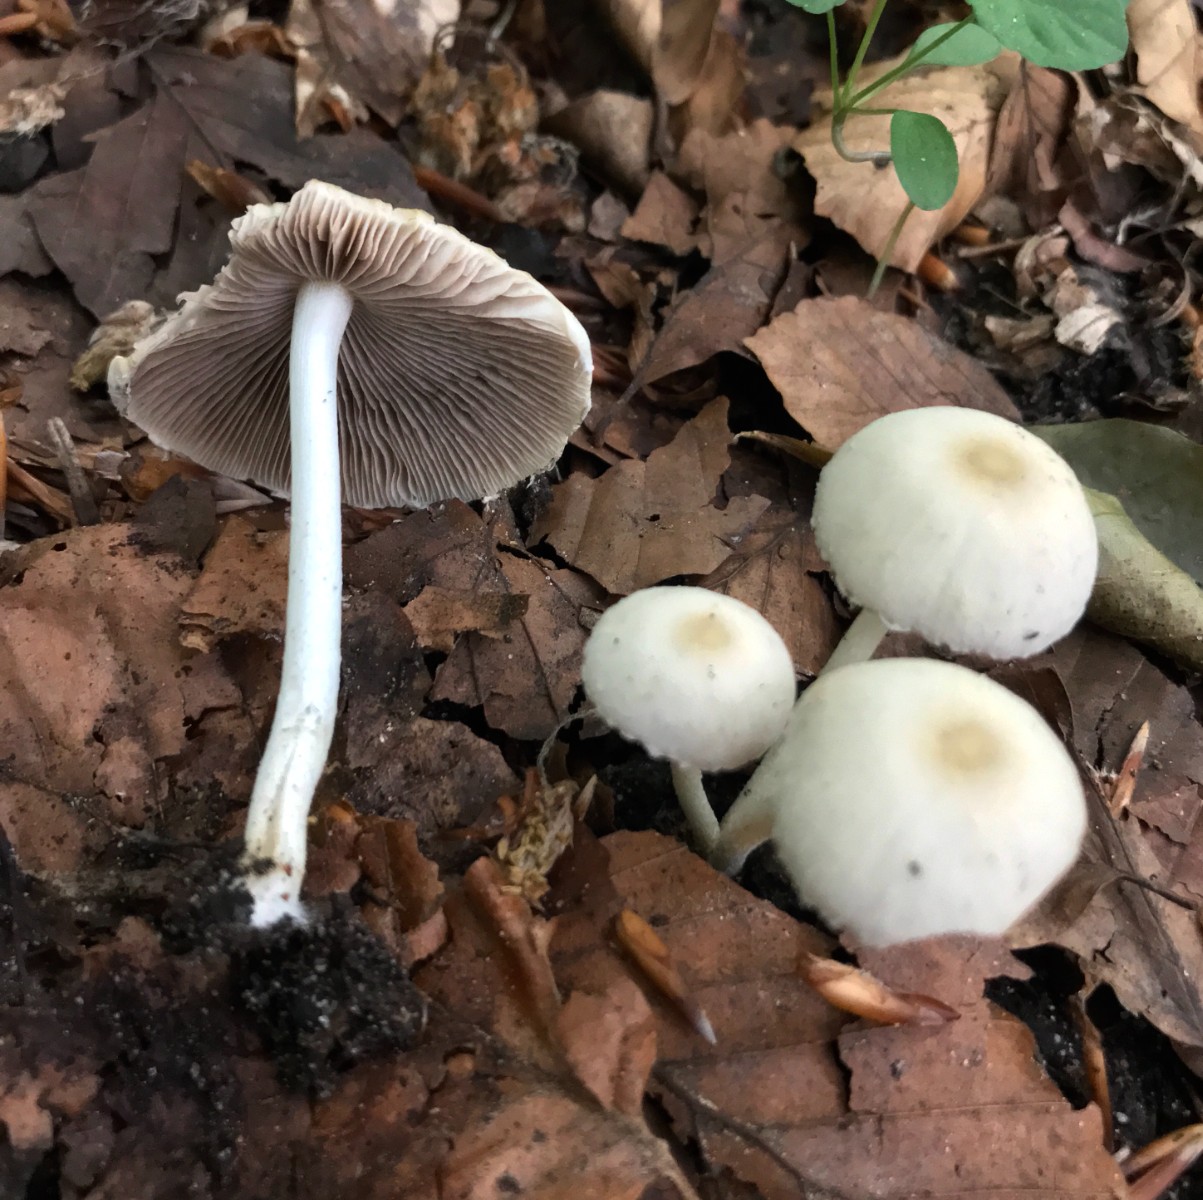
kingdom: Fungi
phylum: Basidiomycota
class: Agaricomycetes
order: Agaricales
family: Psathyrellaceae
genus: Candolleomyces
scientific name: Candolleomyces candolleanus
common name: Candolles mørkhat
